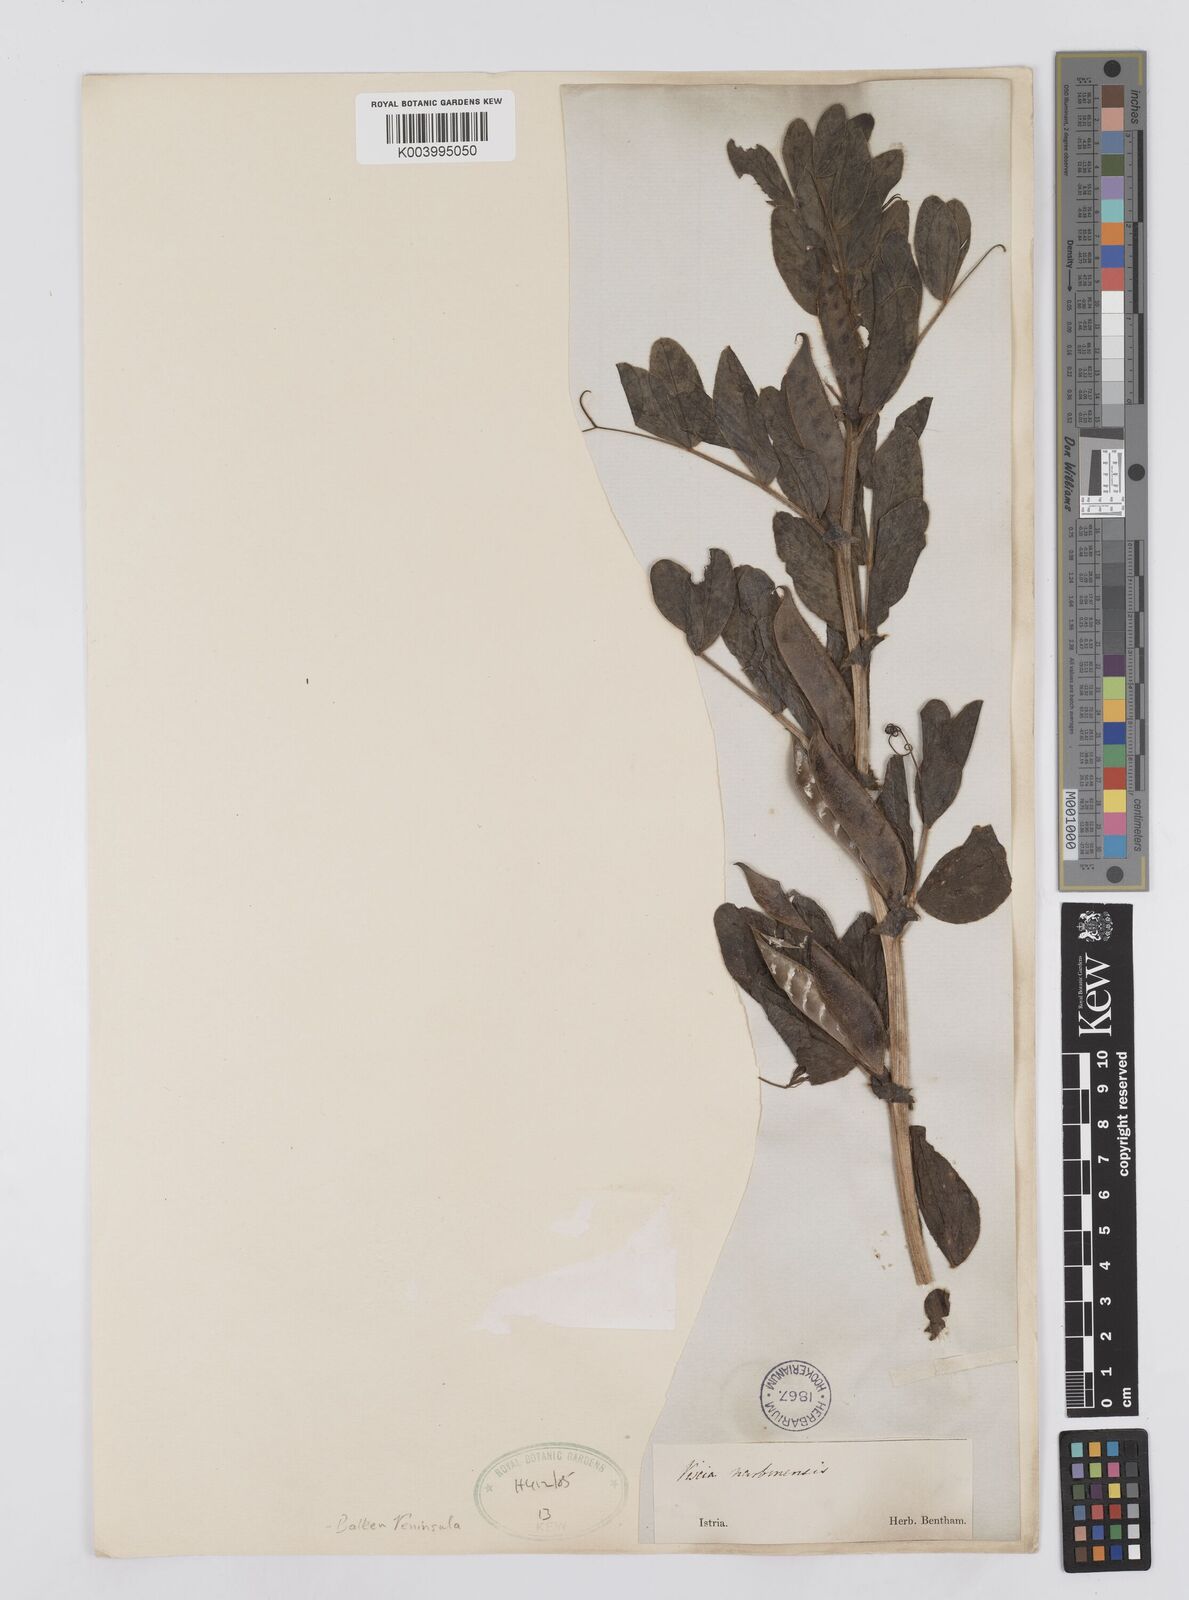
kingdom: Plantae
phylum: Tracheophyta
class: Magnoliopsida
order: Fabales
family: Fabaceae
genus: Vicia
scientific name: Vicia narbonensis
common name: Narbonne vetch
